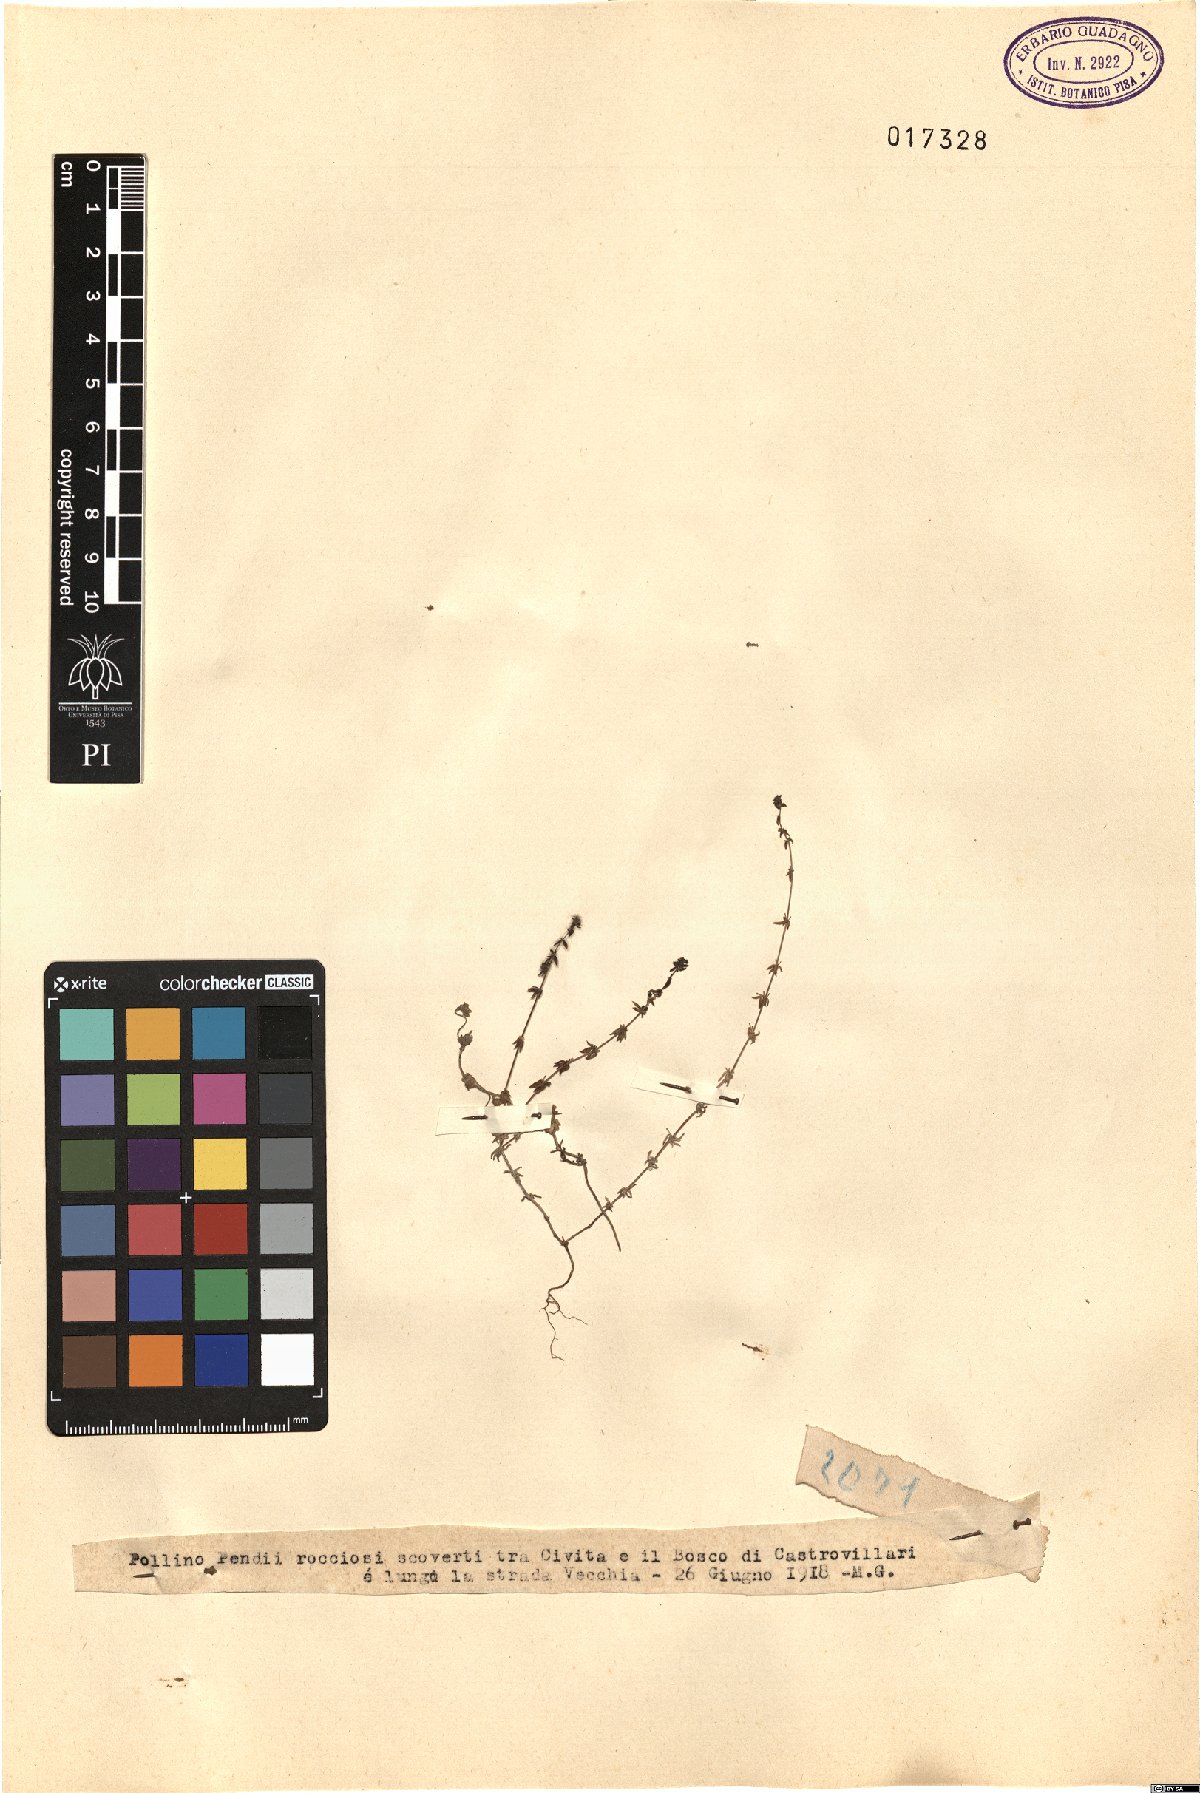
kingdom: Plantae
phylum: Tracheophyta
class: Magnoliopsida
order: Gentianales
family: Rubiaceae
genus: Galium
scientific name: Galium
